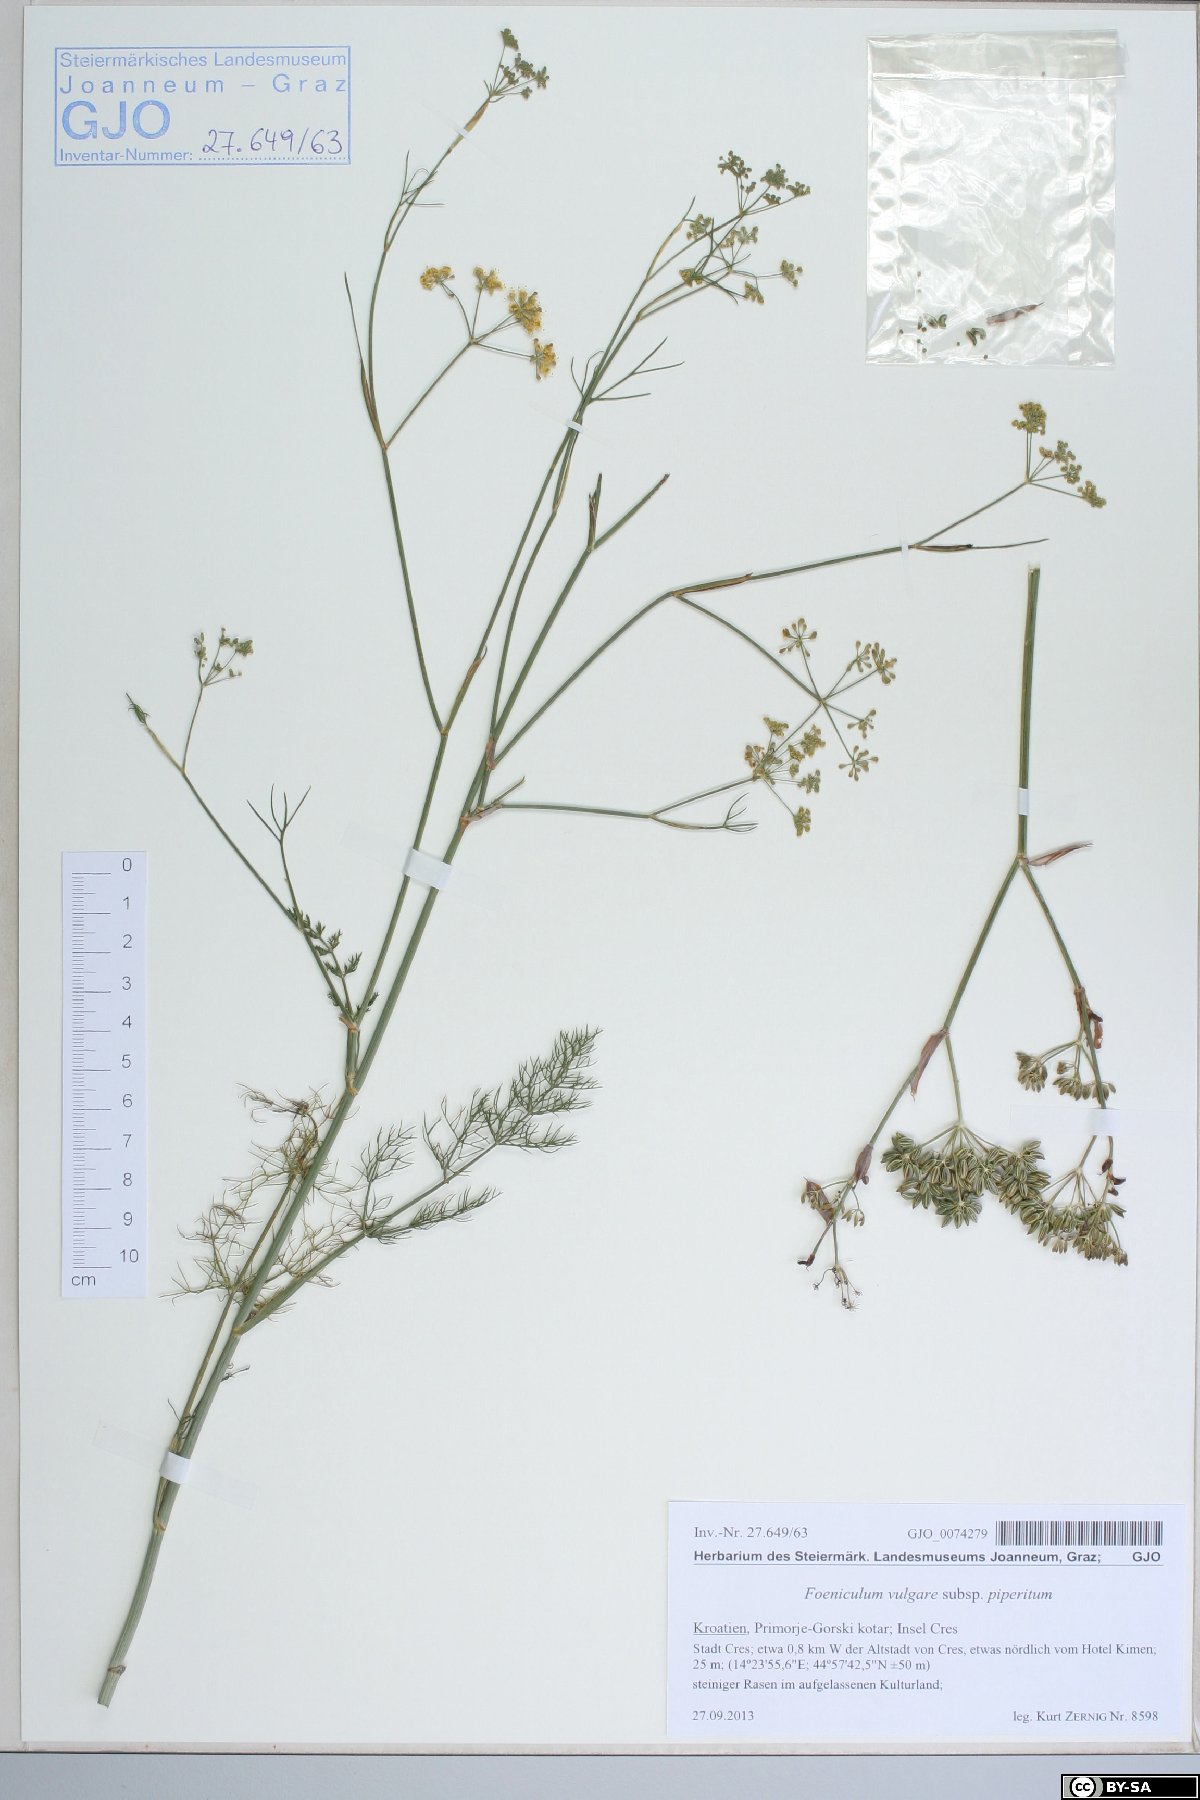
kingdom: Plantae
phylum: Tracheophyta
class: Magnoliopsida
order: Apiales
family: Apiaceae
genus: Foeniculum
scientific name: Foeniculum vulgare
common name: Fennel
